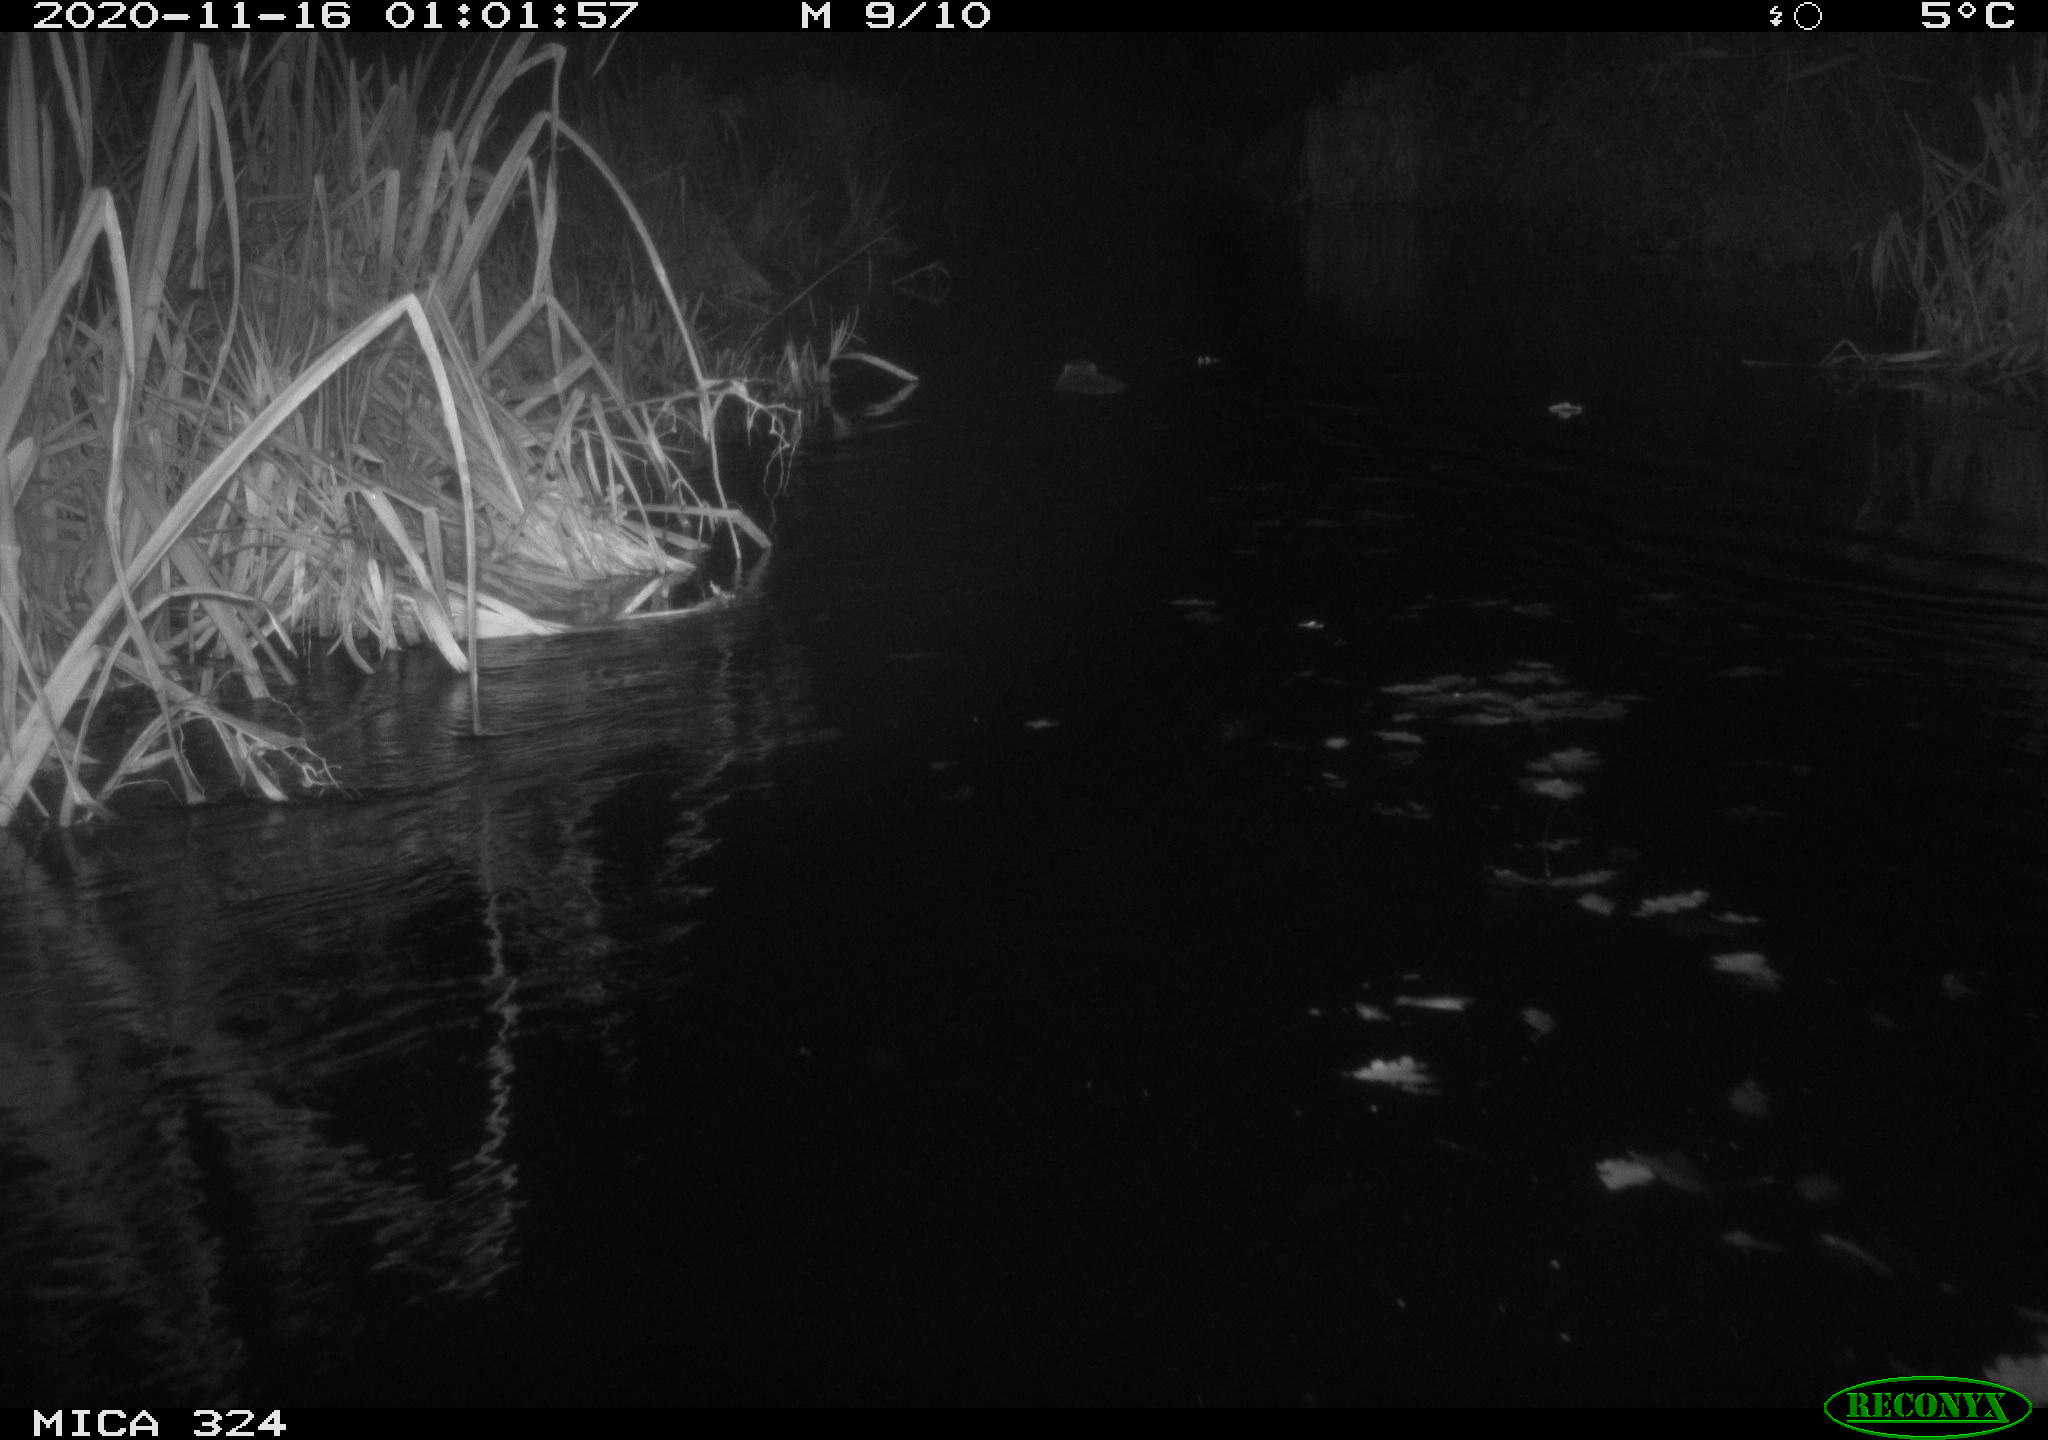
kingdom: Animalia
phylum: Chordata
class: Mammalia
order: Rodentia
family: Myocastoridae
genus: Myocastor
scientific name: Myocastor coypus
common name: Coypu
